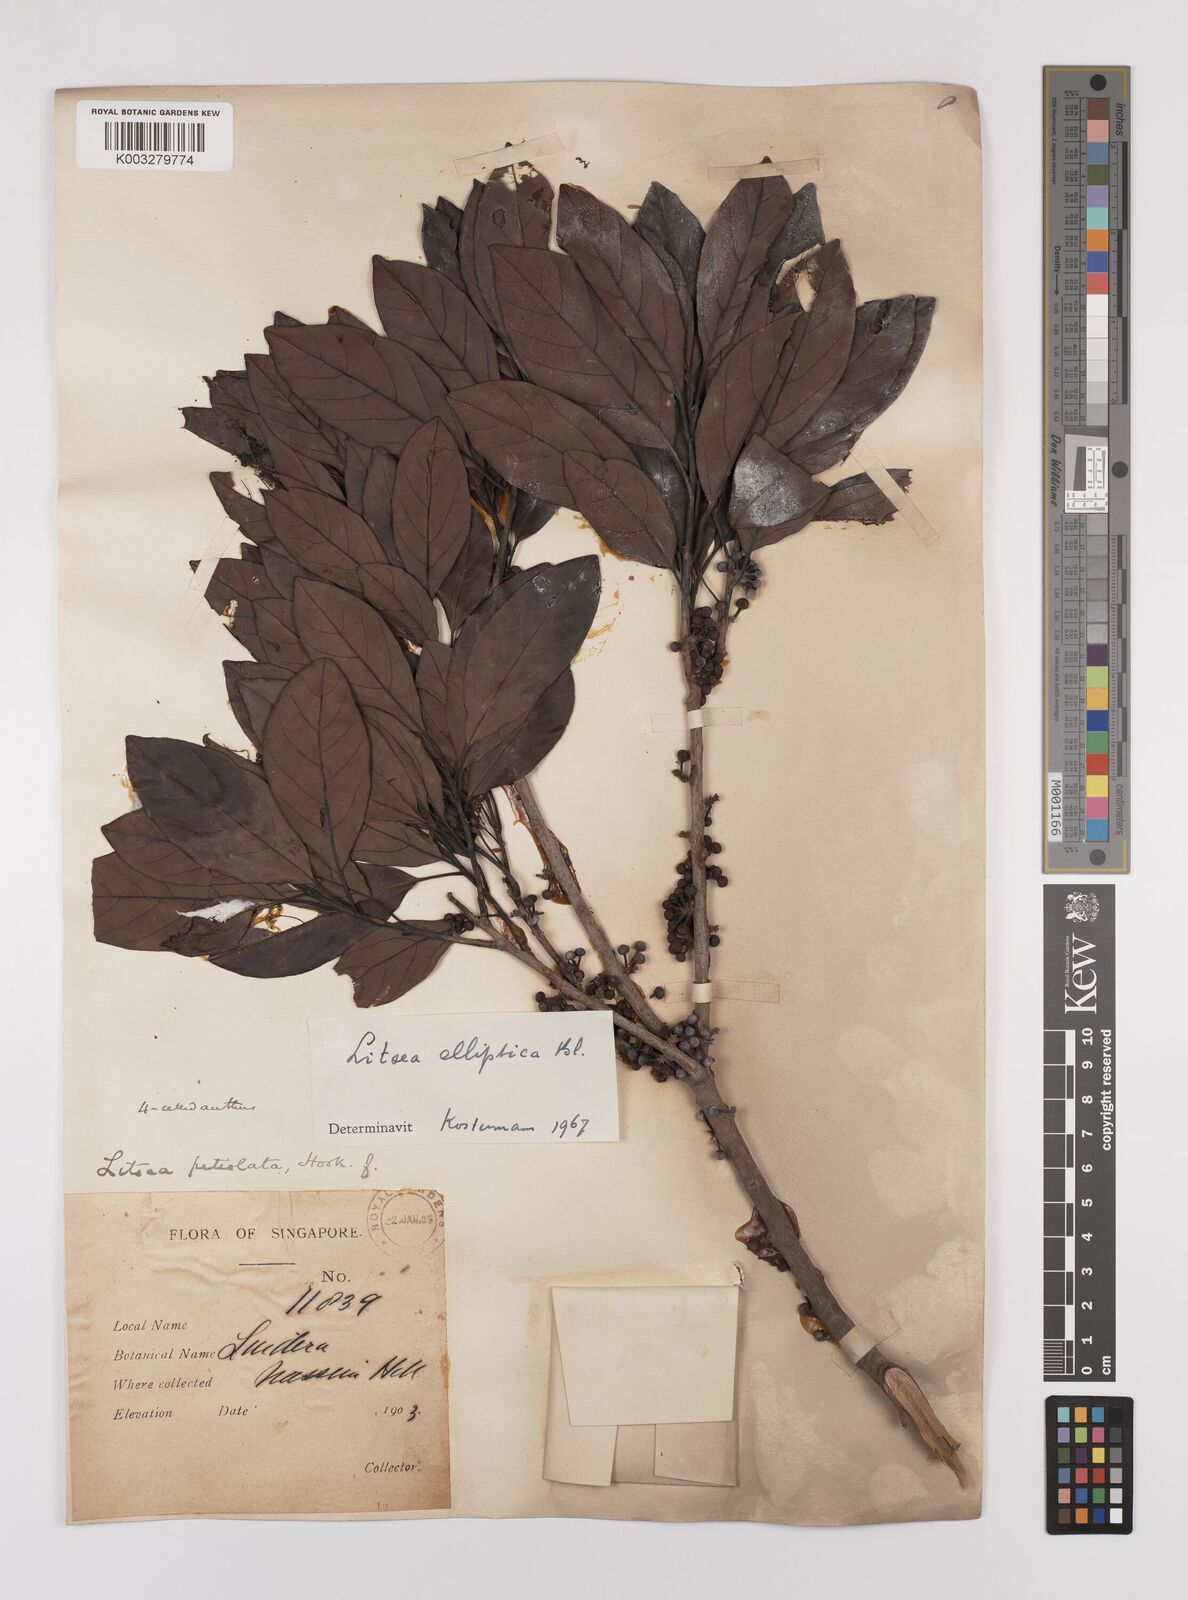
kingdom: Plantae
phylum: Tracheophyta
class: Magnoliopsida
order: Laurales
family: Lauraceae
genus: Litsea
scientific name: Litsea elliptica
